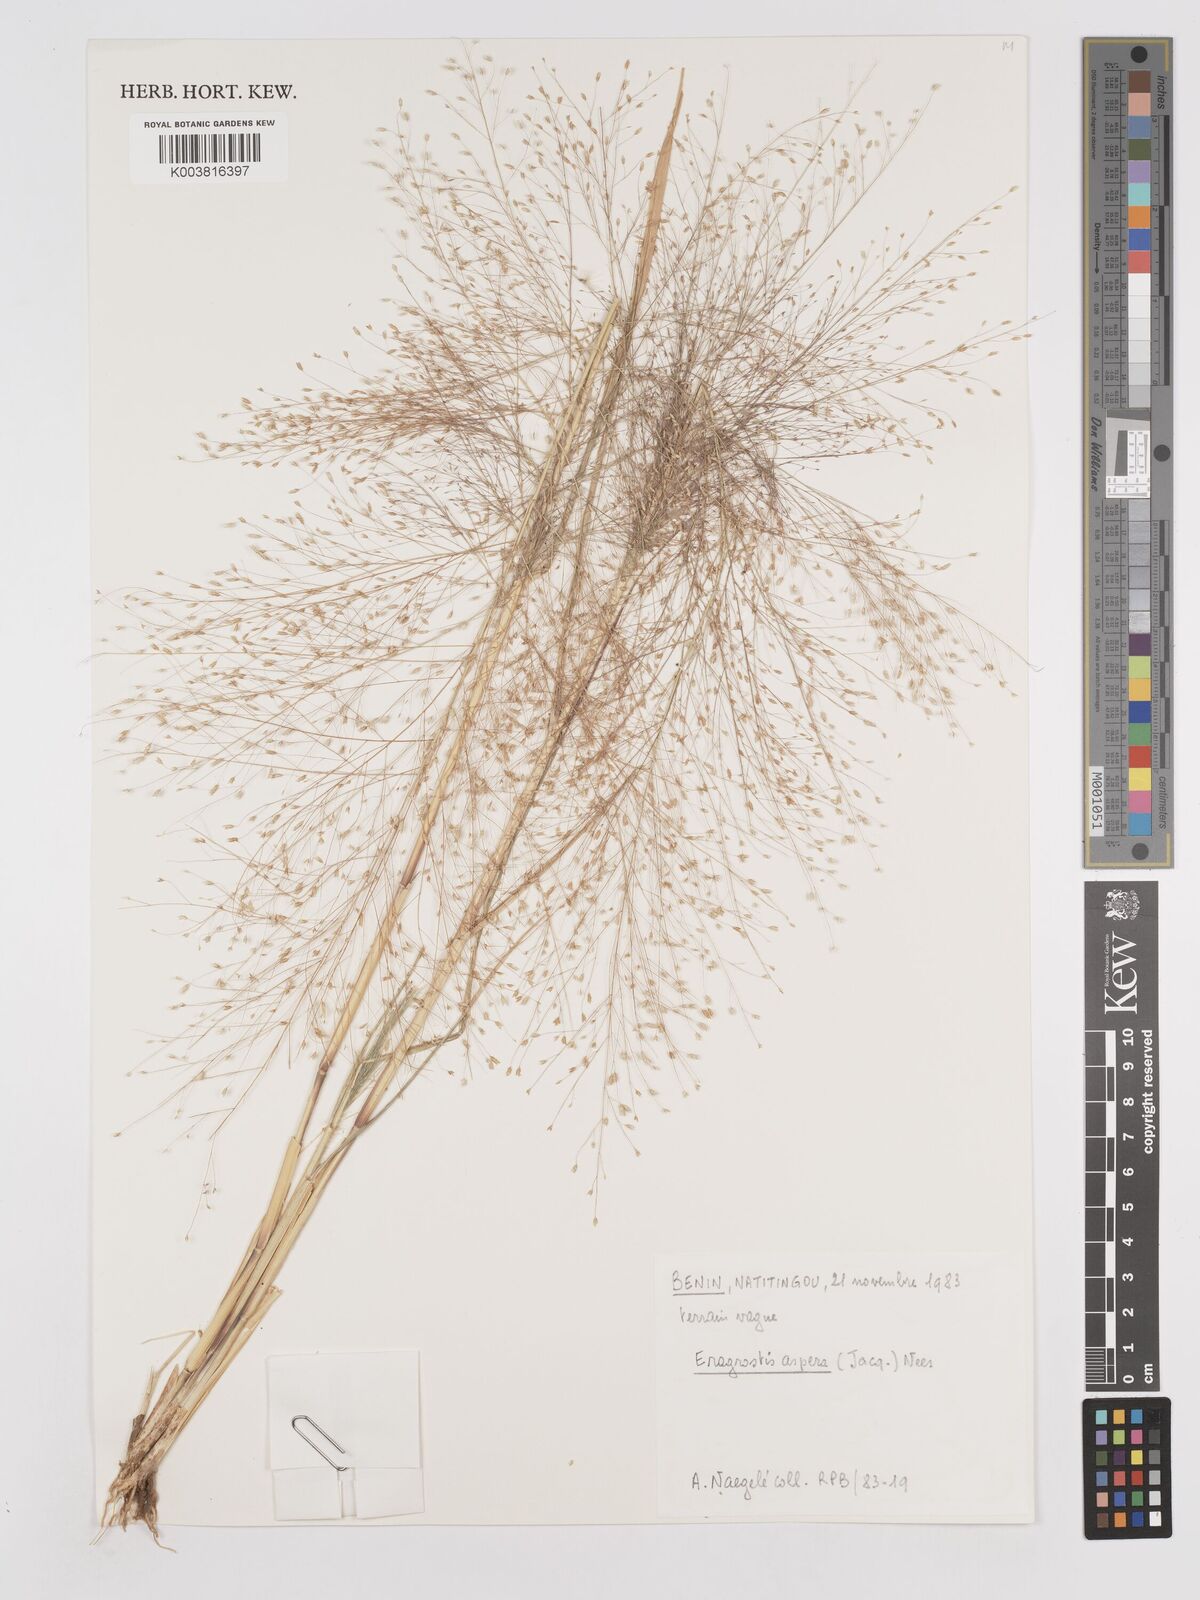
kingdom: Plantae
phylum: Tracheophyta
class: Liliopsida
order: Poales
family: Poaceae
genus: Eragrostis
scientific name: Eragrostis aspera
